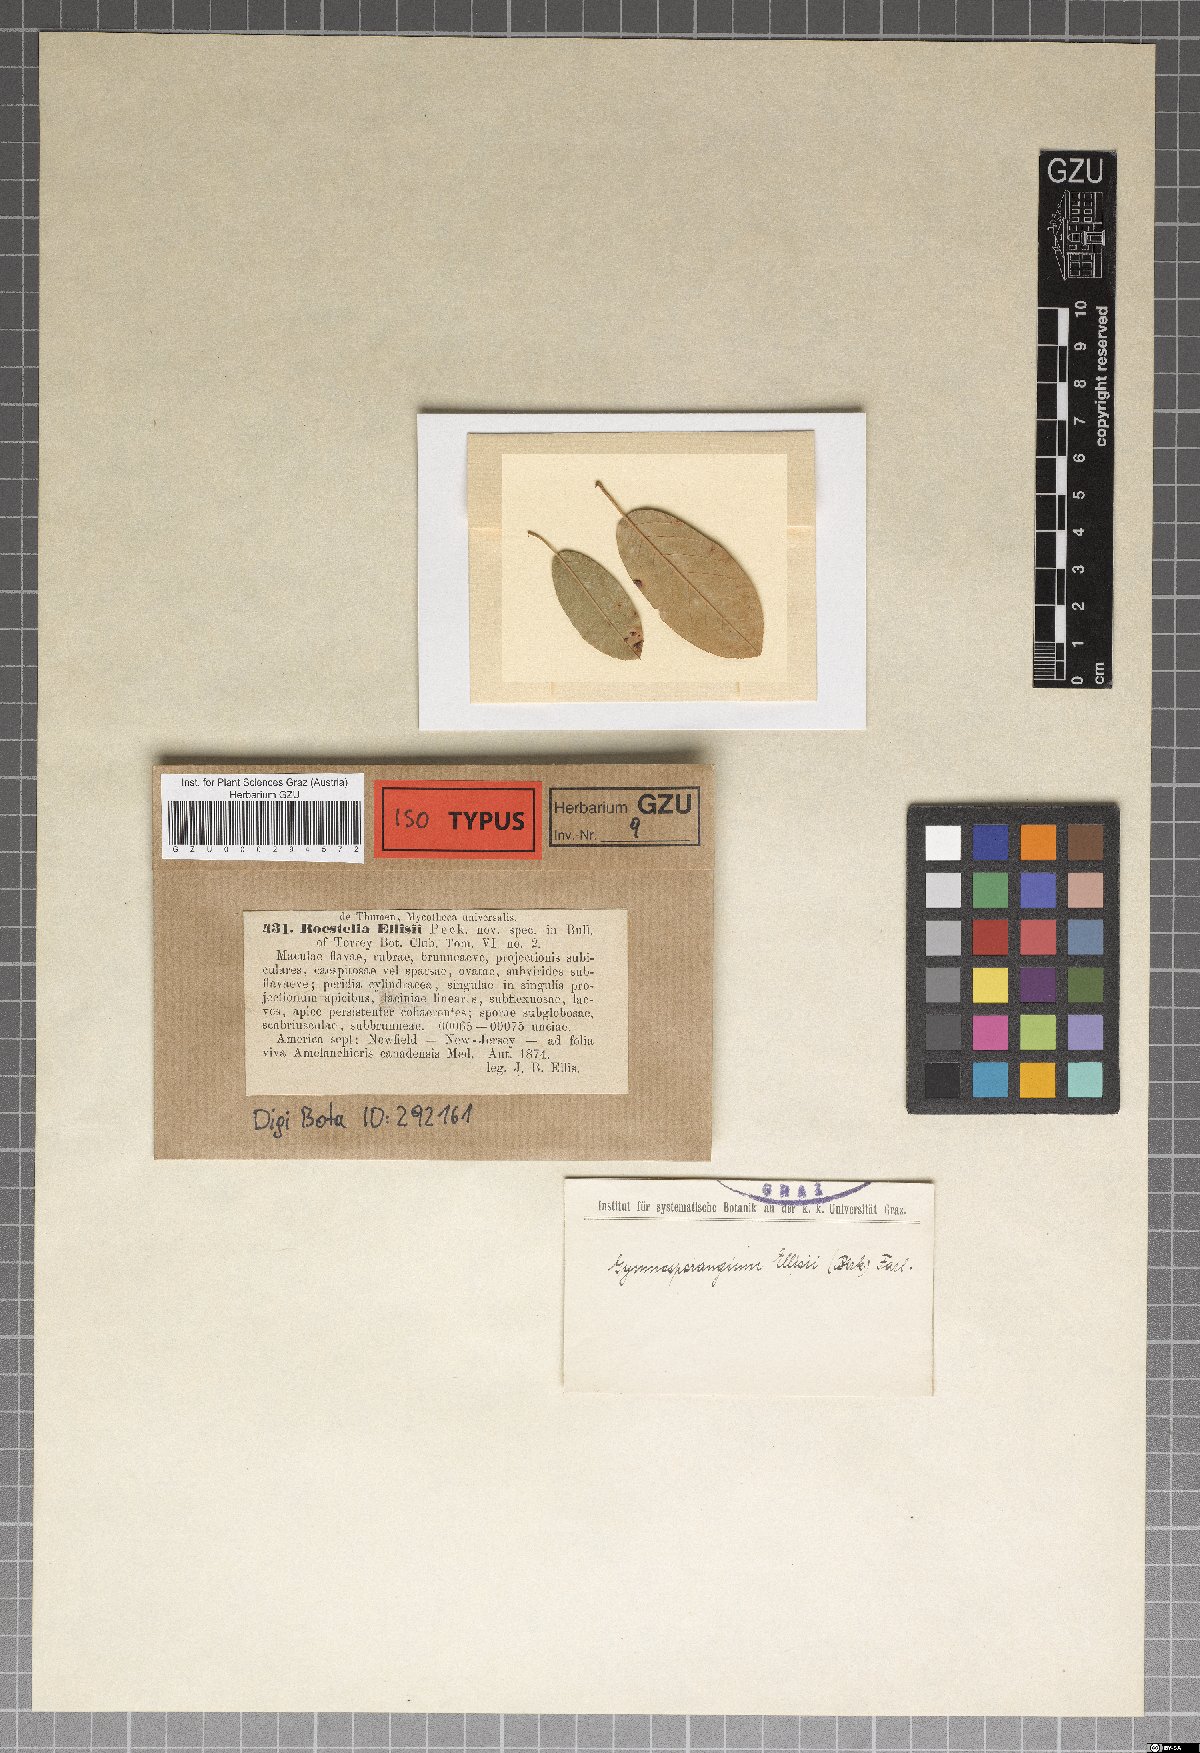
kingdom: Fungi
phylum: Basidiomycota
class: Pucciniomycetes
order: Pucciniales
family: Gymnosporangiaceae
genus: Roestelia
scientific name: Roestelia ellisii
